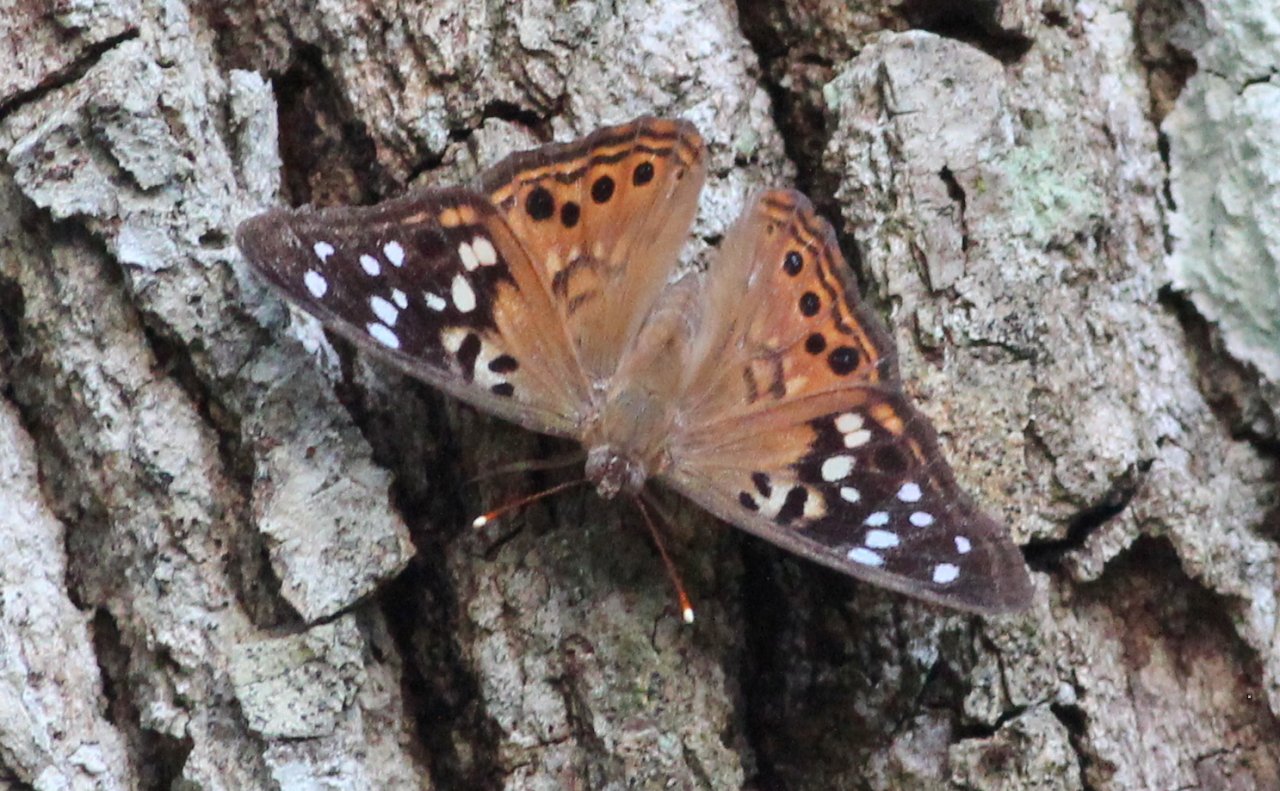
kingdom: Animalia
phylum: Arthropoda
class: Insecta
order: Lepidoptera
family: Nymphalidae
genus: Asterocampa
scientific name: Asterocampa celtis
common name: Hackberry Emperor
